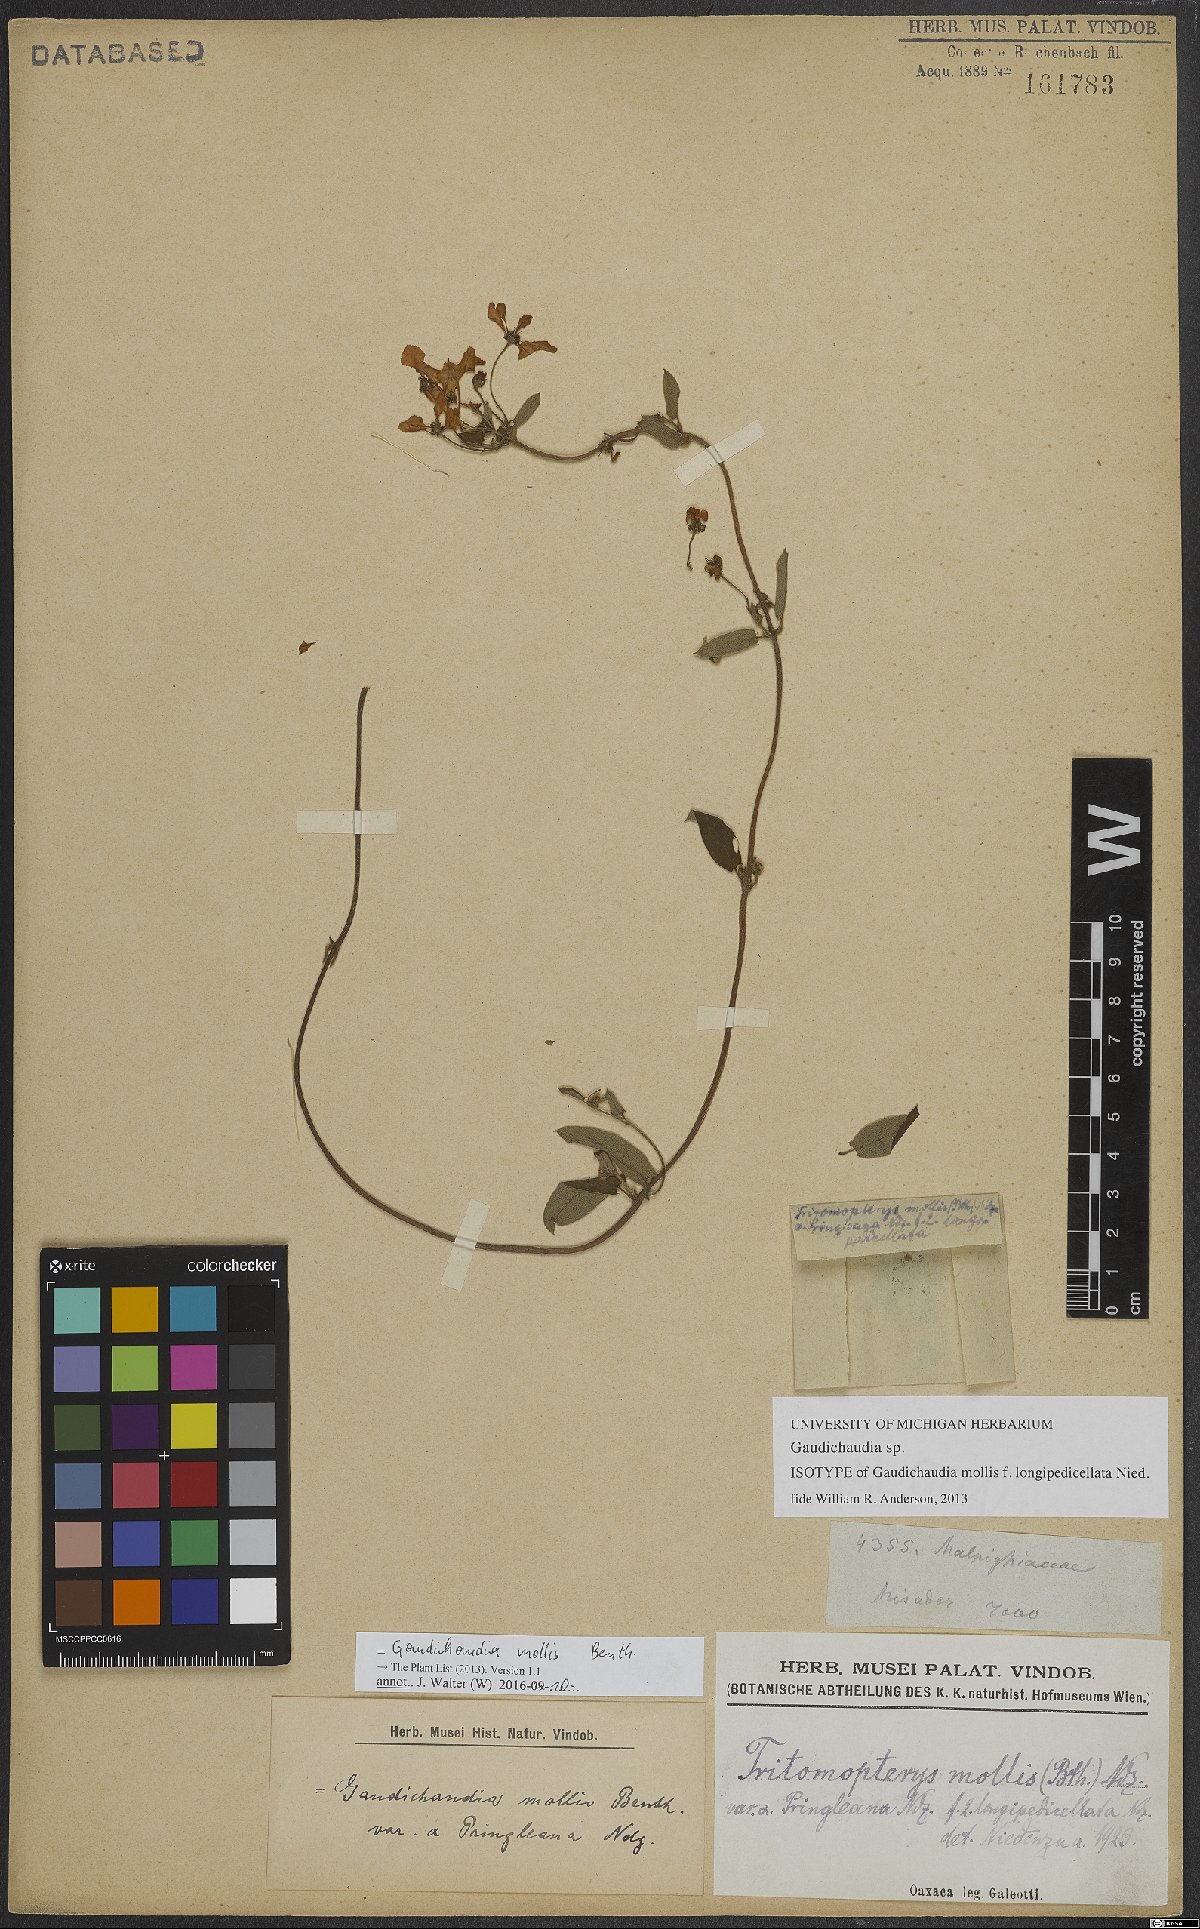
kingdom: Plantae
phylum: Tracheophyta
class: Magnoliopsida
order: Malpighiales
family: Malpighiaceae
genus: Gaudichaudia
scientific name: Gaudichaudia mollis
